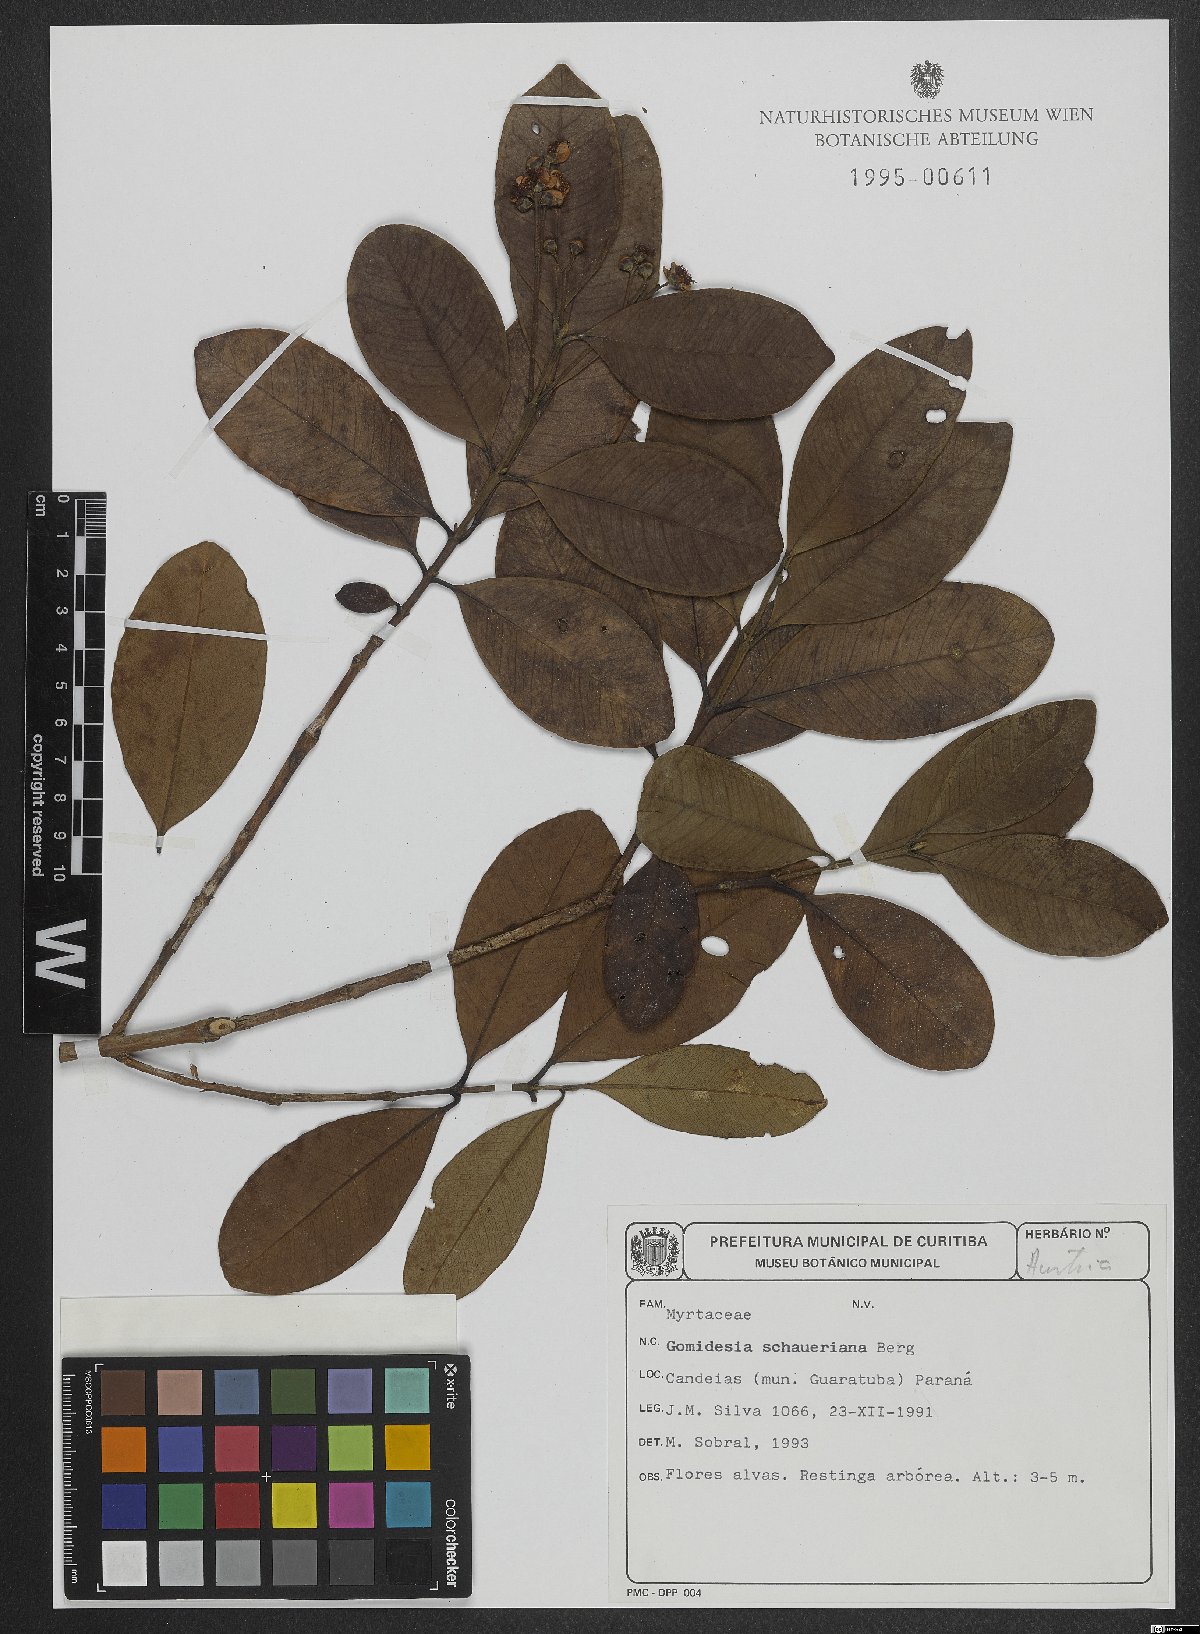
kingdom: Plantae
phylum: Tracheophyta
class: Magnoliopsida
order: Myrtales
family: Myrtaceae
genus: Myrcia
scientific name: Myrcia freyreissiana
